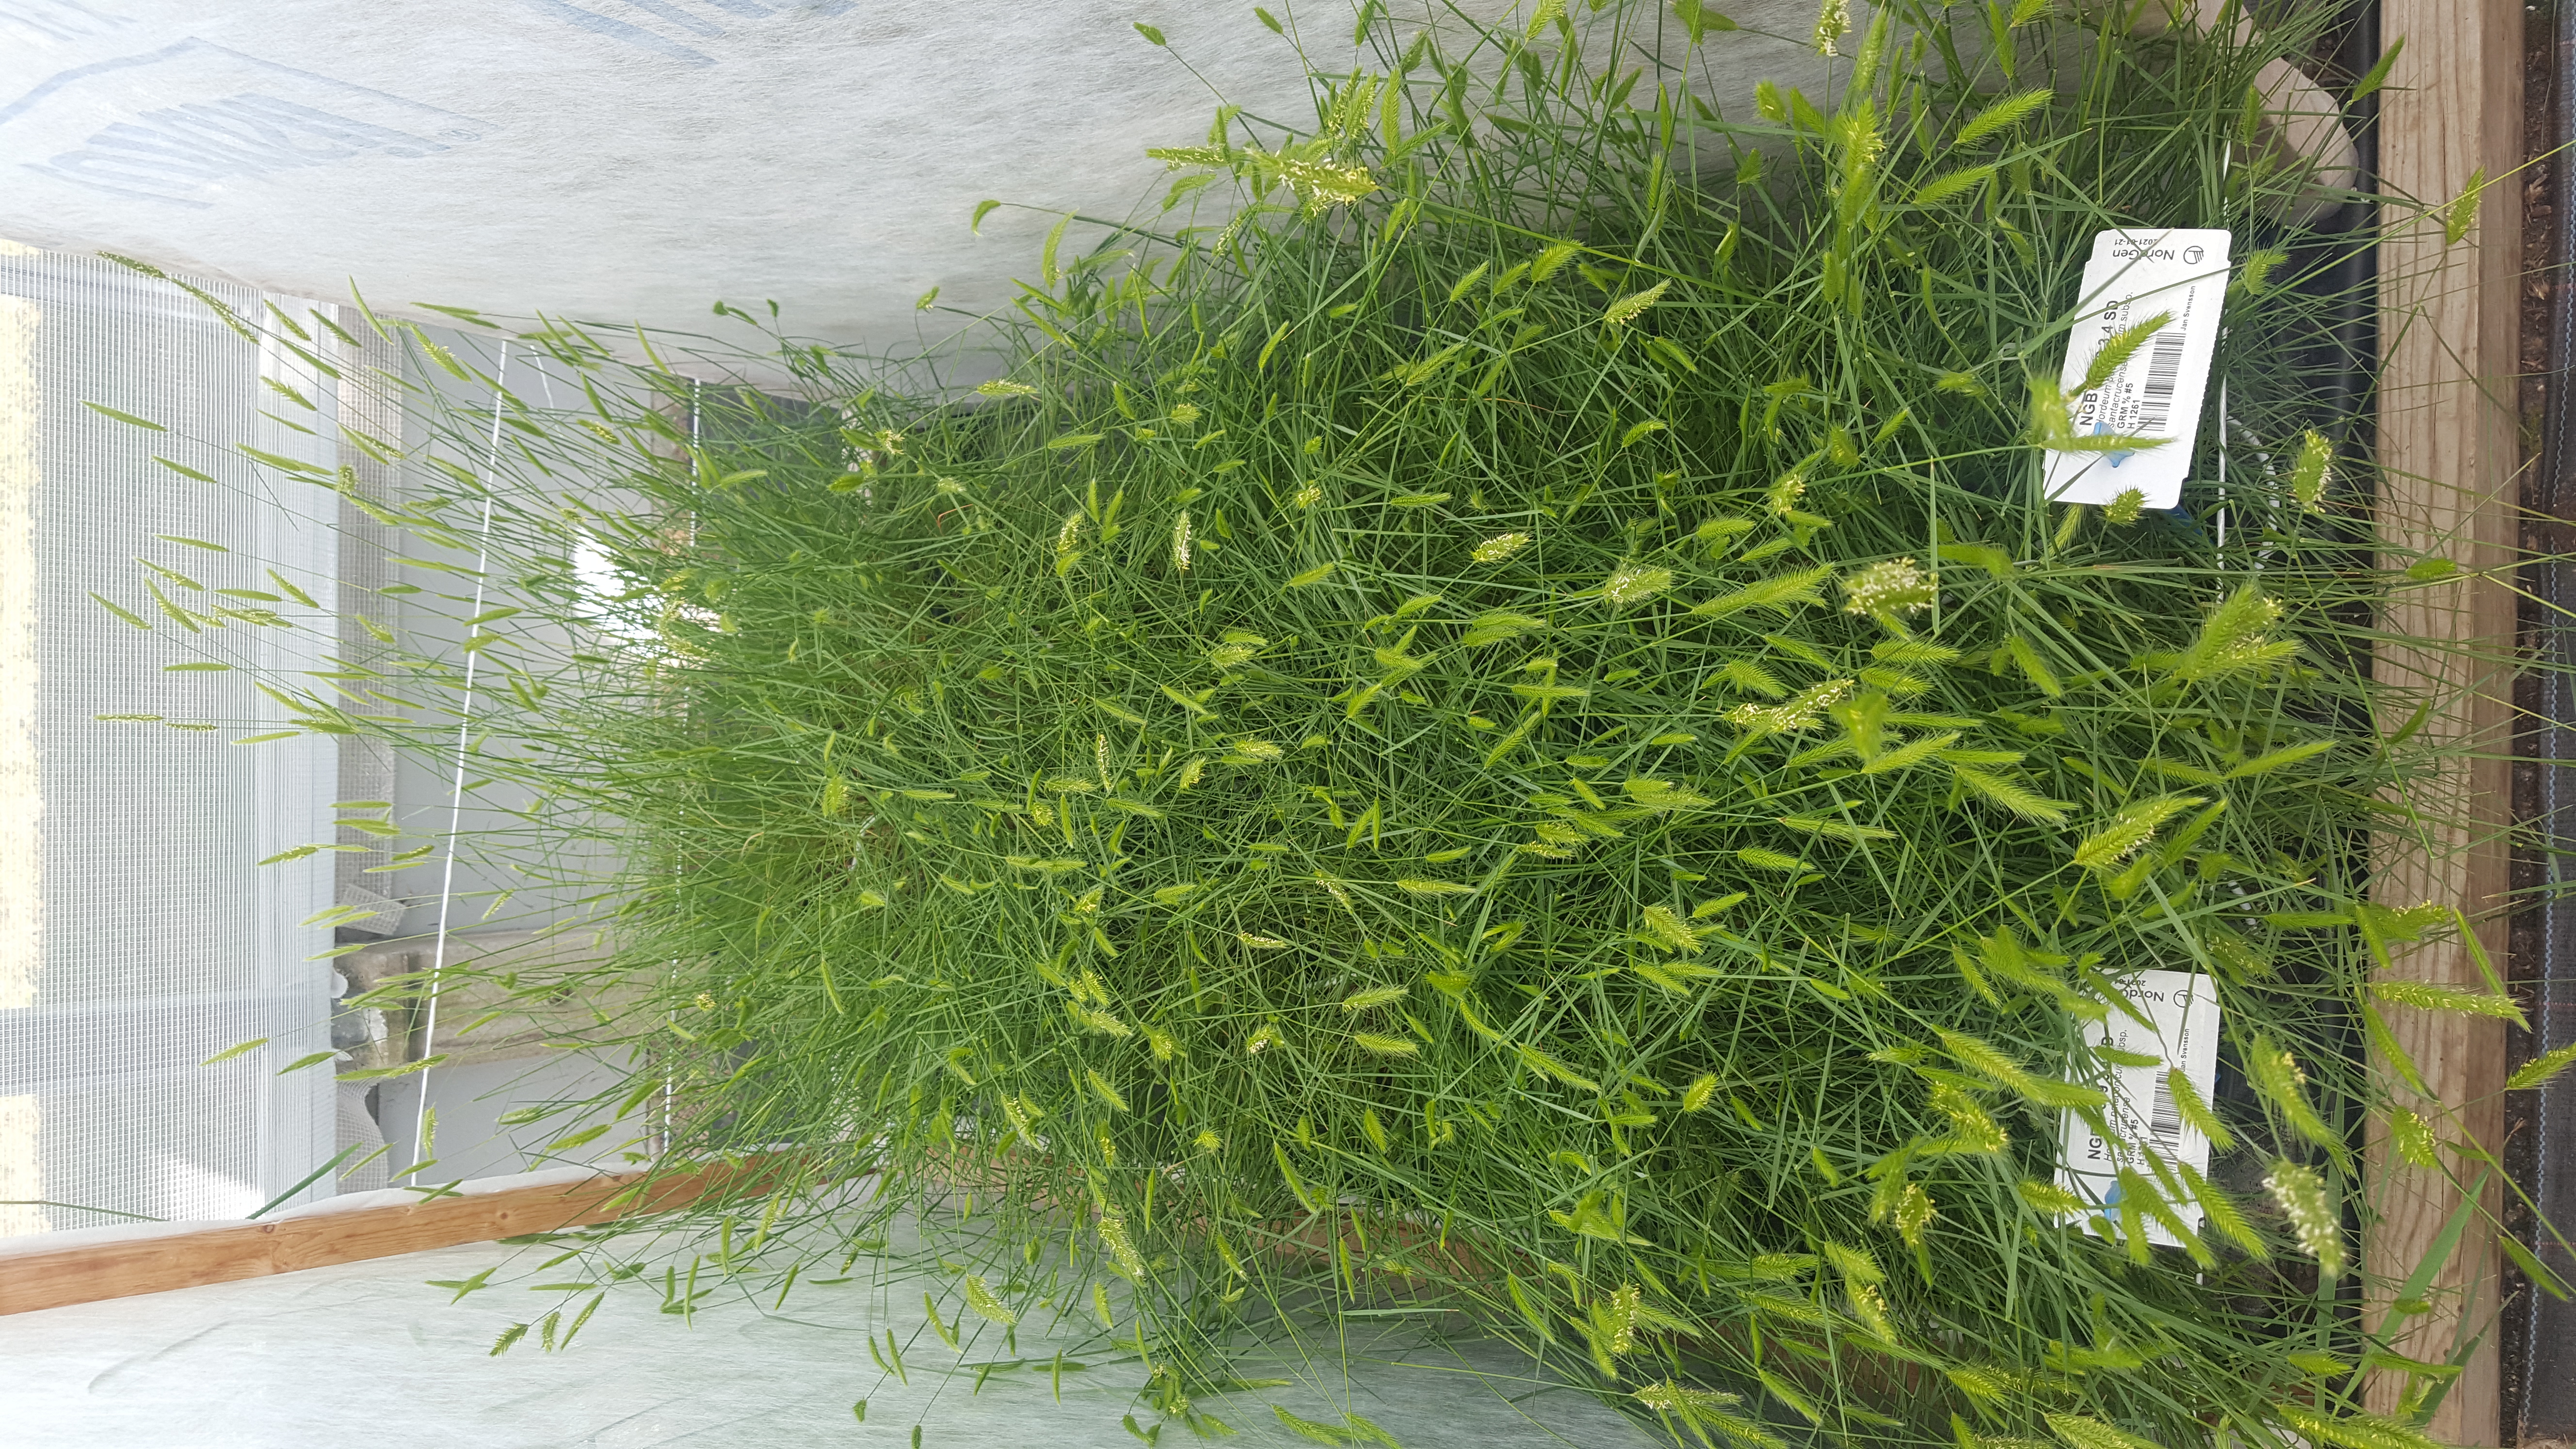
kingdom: Plantae
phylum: Tracheophyta
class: Liliopsida
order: Poales
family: Poaceae
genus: Hordeum
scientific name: Hordeum patagonicum
